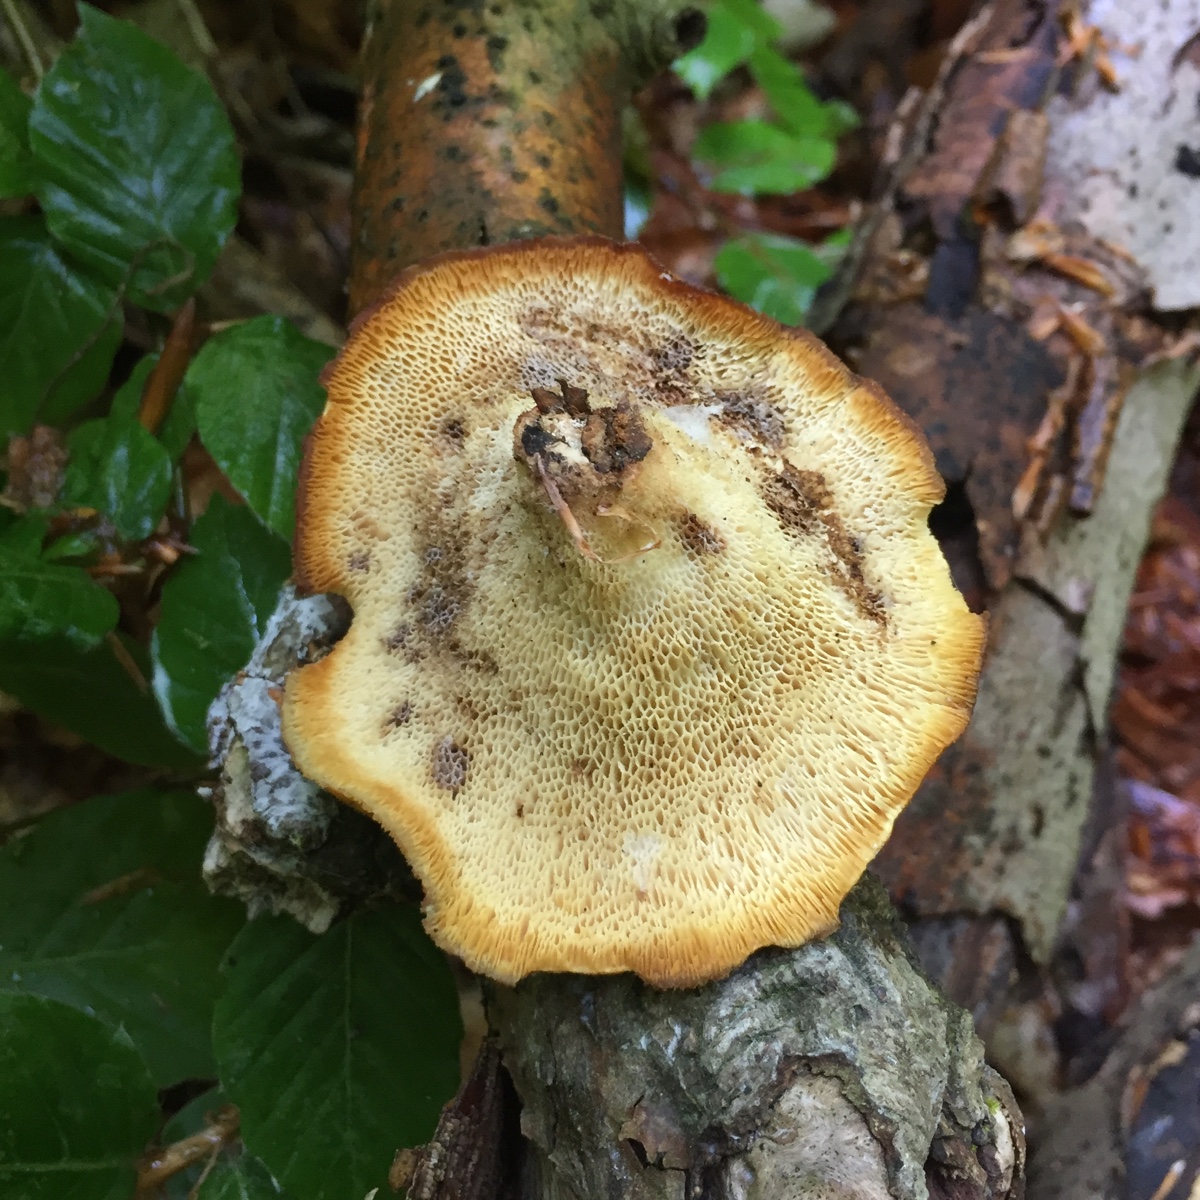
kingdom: Fungi
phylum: Basidiomycota
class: Agaricomycetes
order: Polyporales
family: Polyporaceae
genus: Polyporus
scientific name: Polyporus tuberaster
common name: knoldet stilkporesvamp
